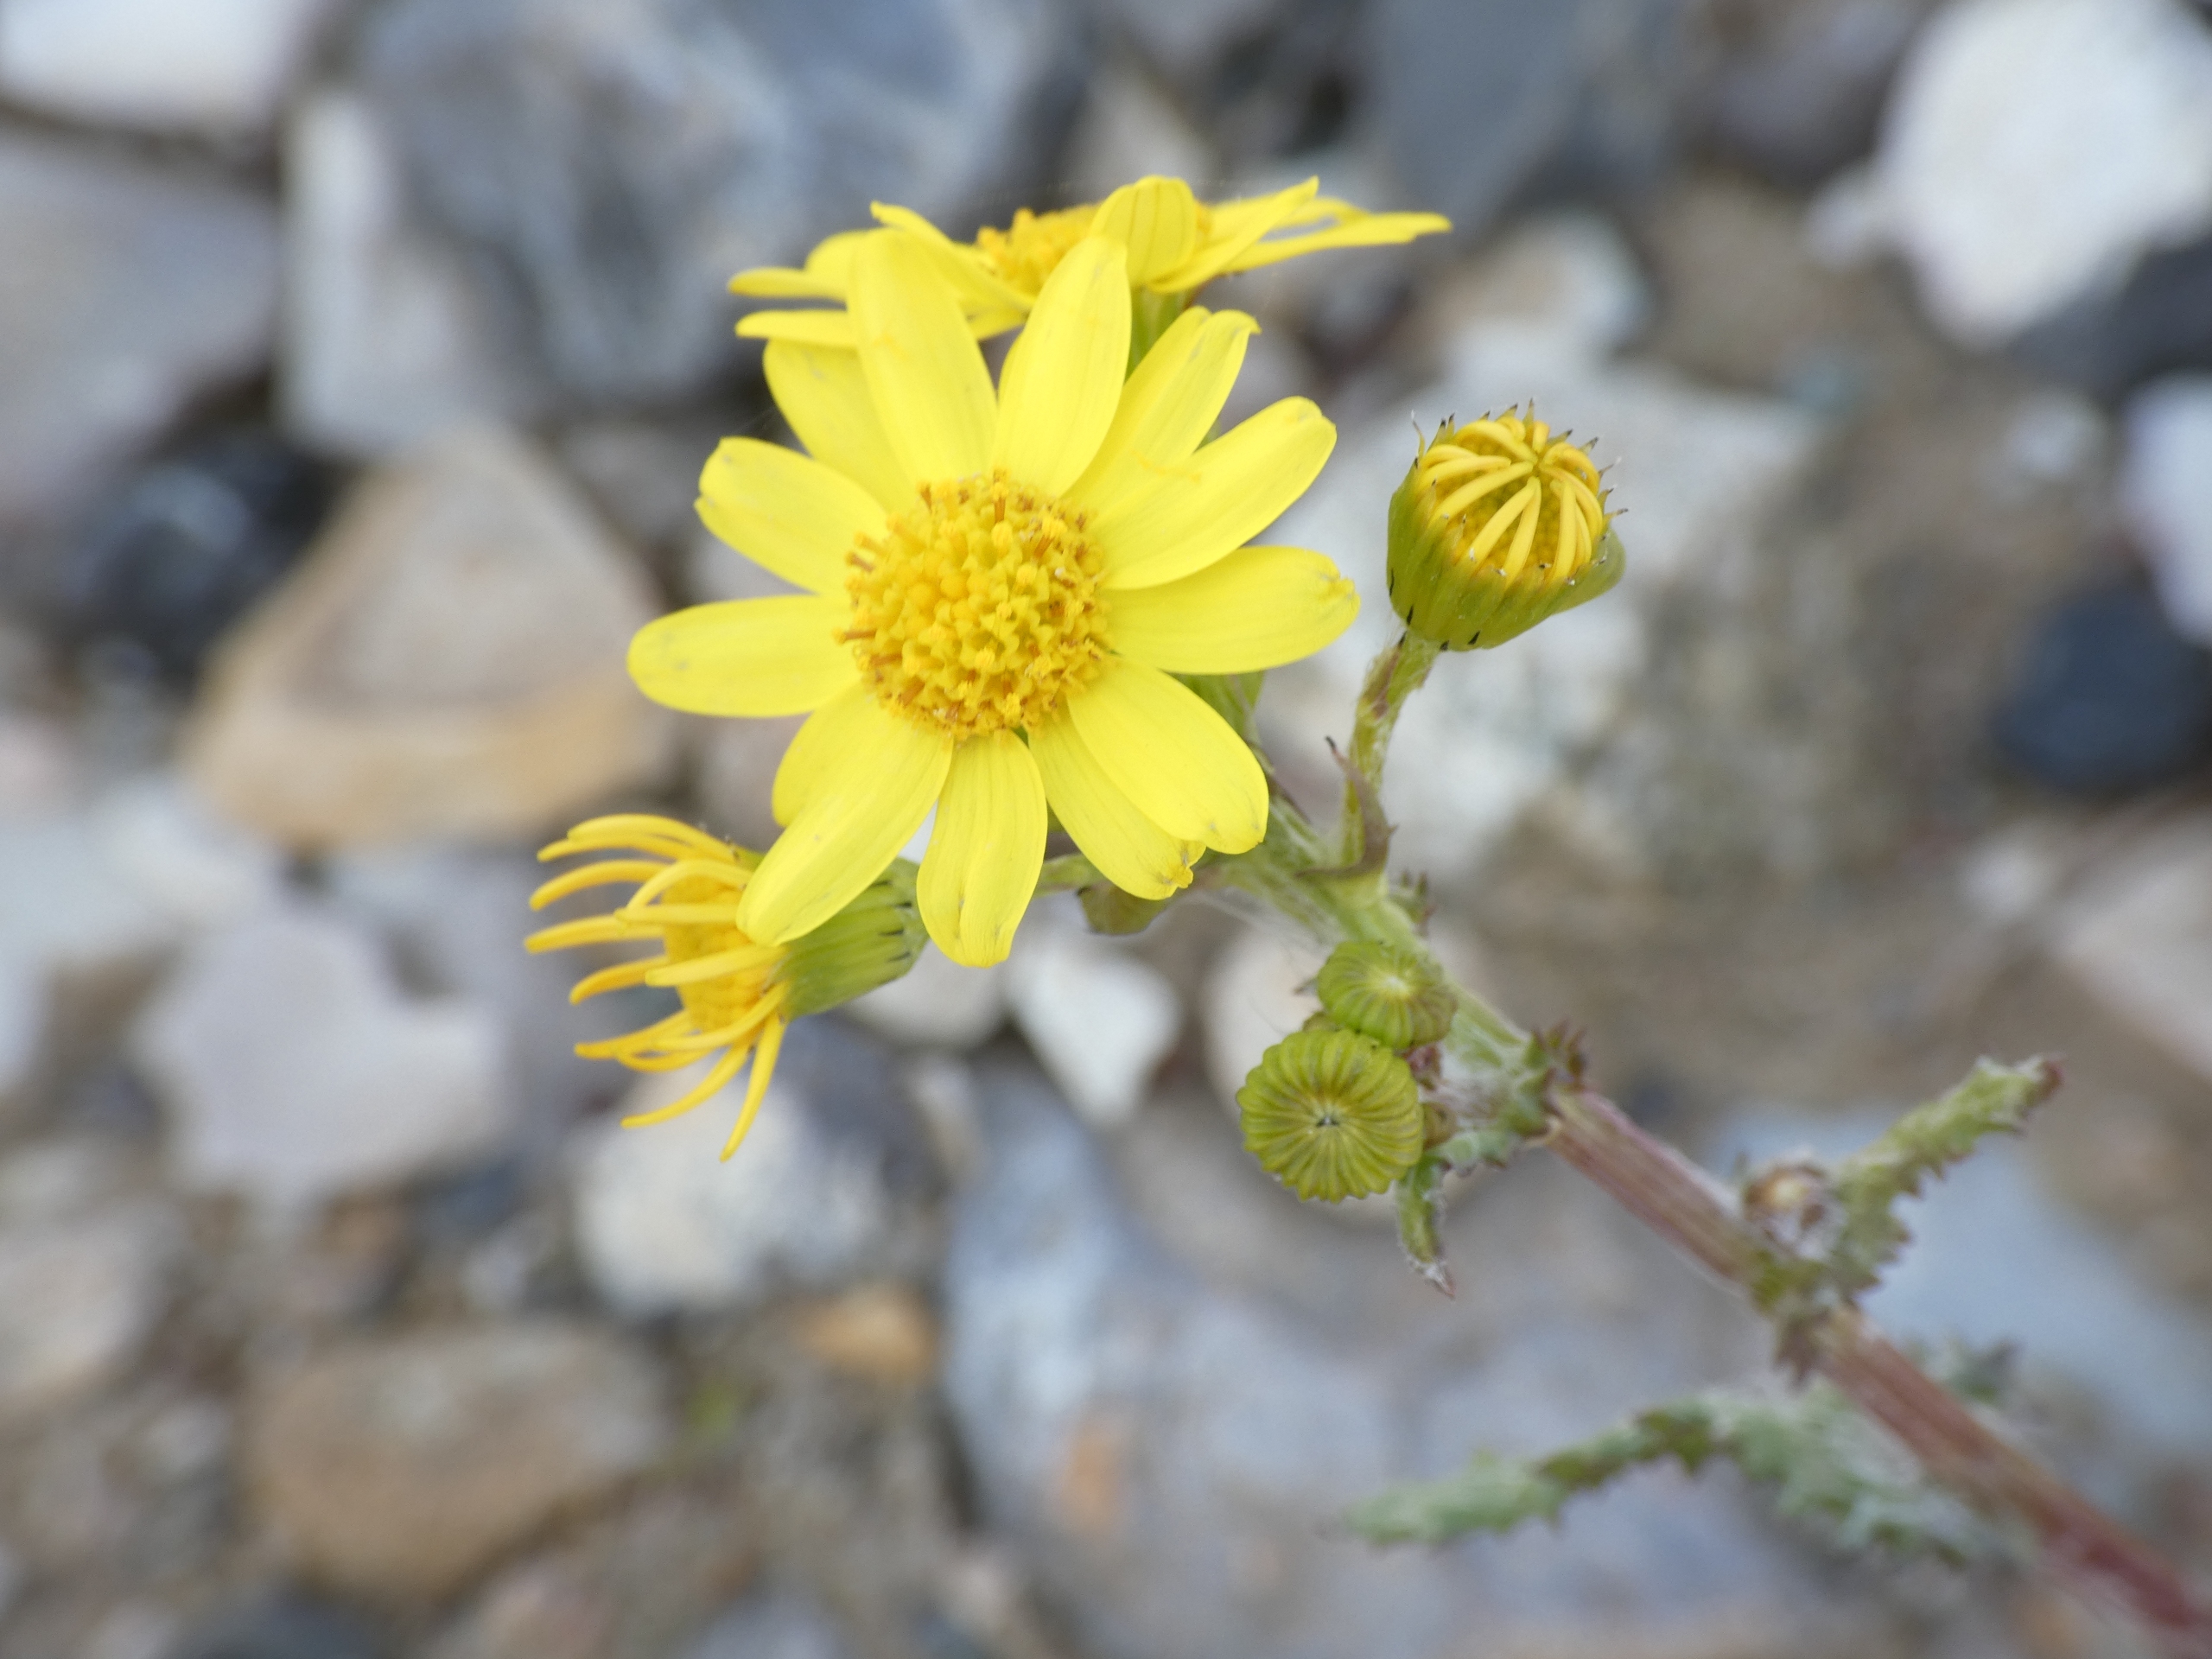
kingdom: Plantae
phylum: Tracheophyta
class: Magnoliopsida
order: Asterales
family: Asteraceae
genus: Senecio
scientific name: Senecio leucanthemifolius
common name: Vår-brandbæger
